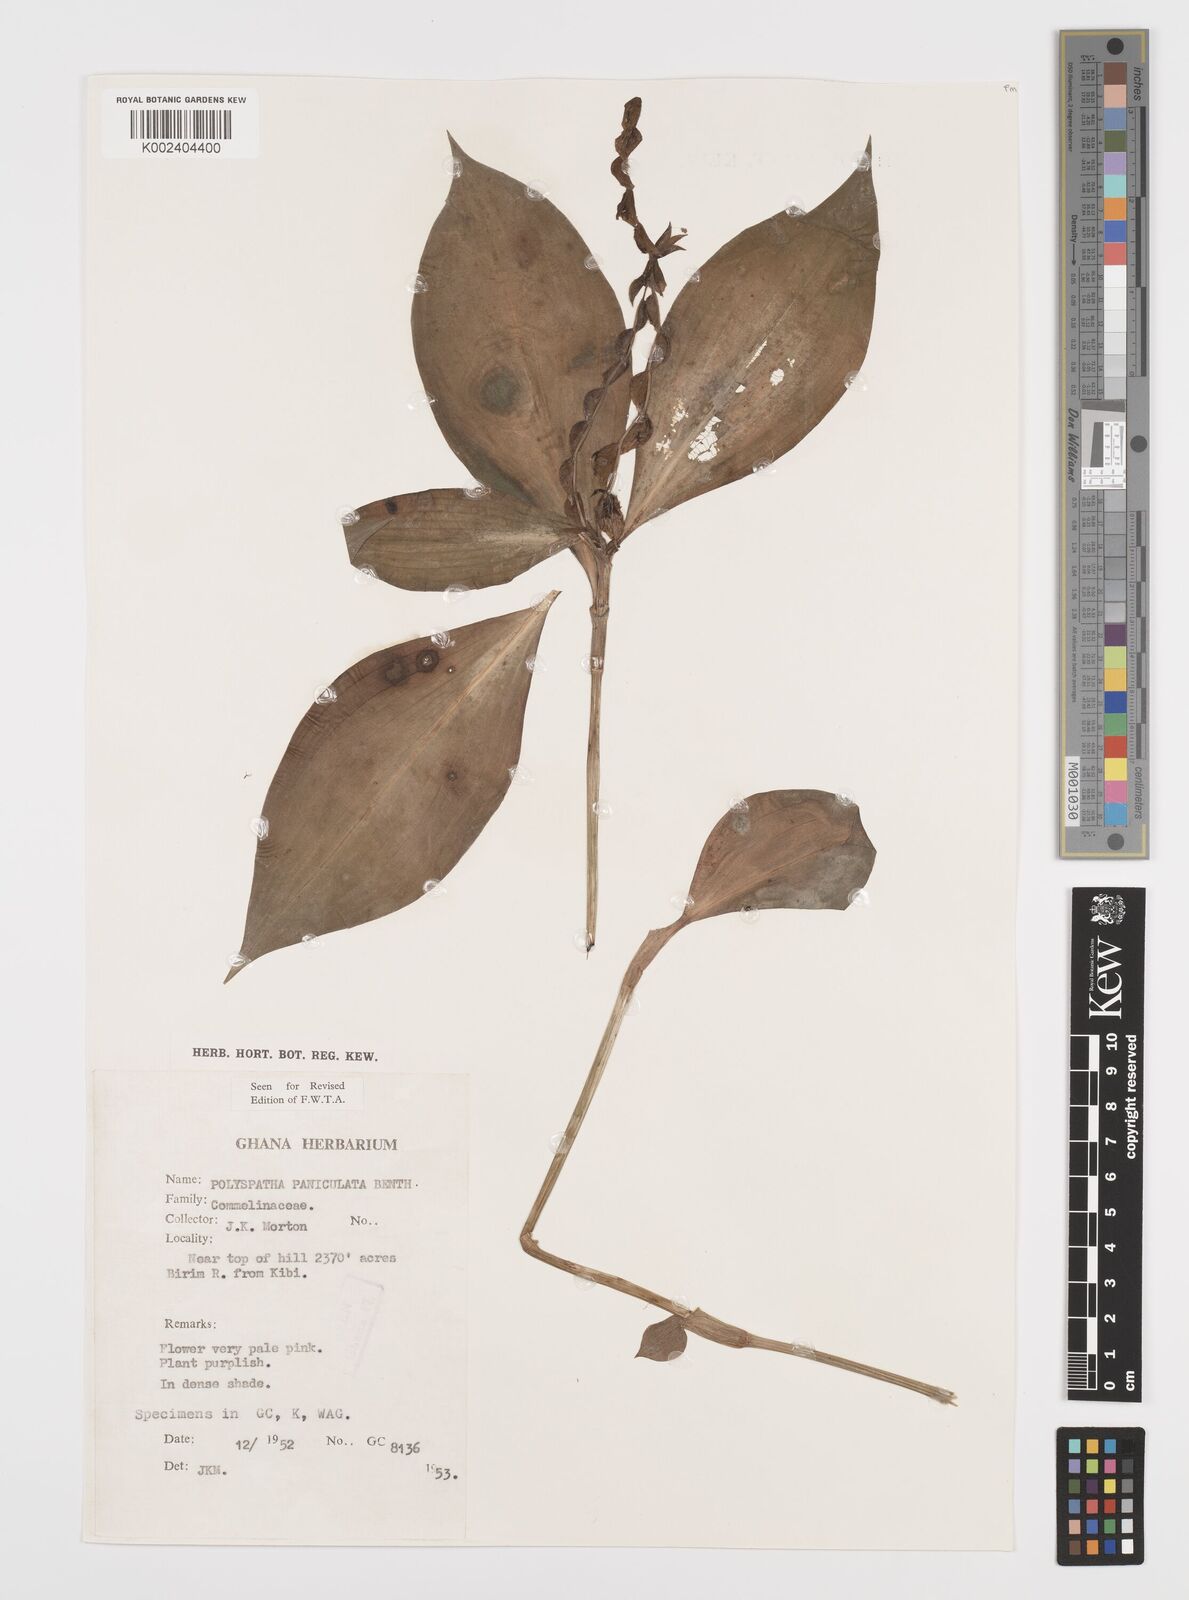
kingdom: Plantae
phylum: Tracheophyta
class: Liliopsida
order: Commelinales
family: Commelinaceae
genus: Polyspatha
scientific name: Polyspatha paniculata
